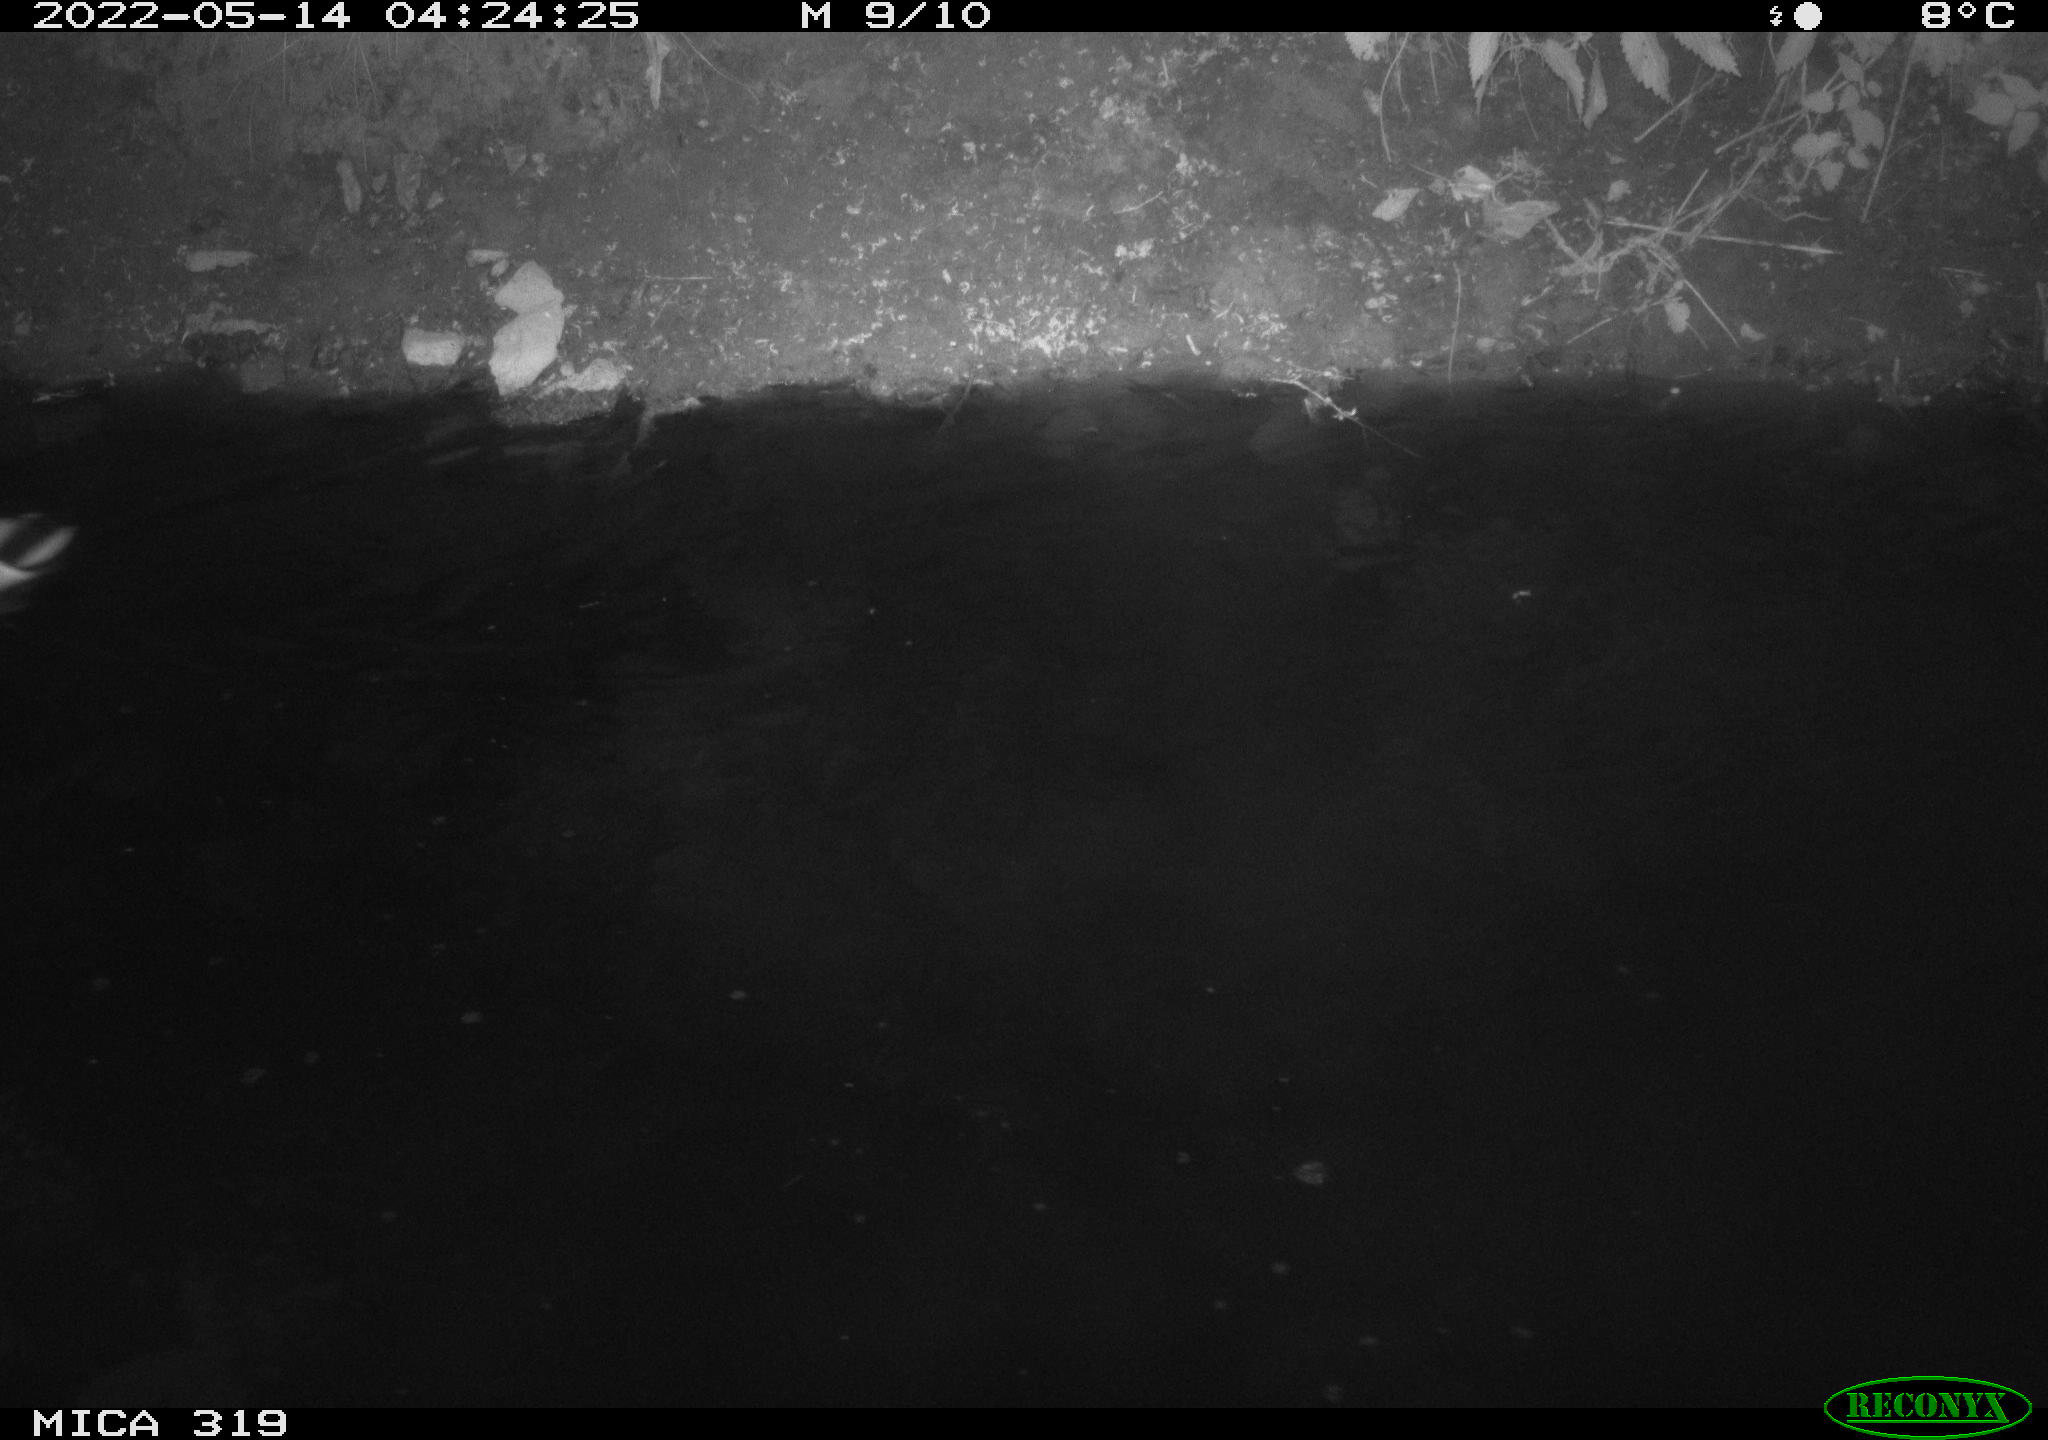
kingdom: Animalia
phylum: Chordata
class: Aves
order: Anseriformes
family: Anatidae
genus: Anas
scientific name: Anas
